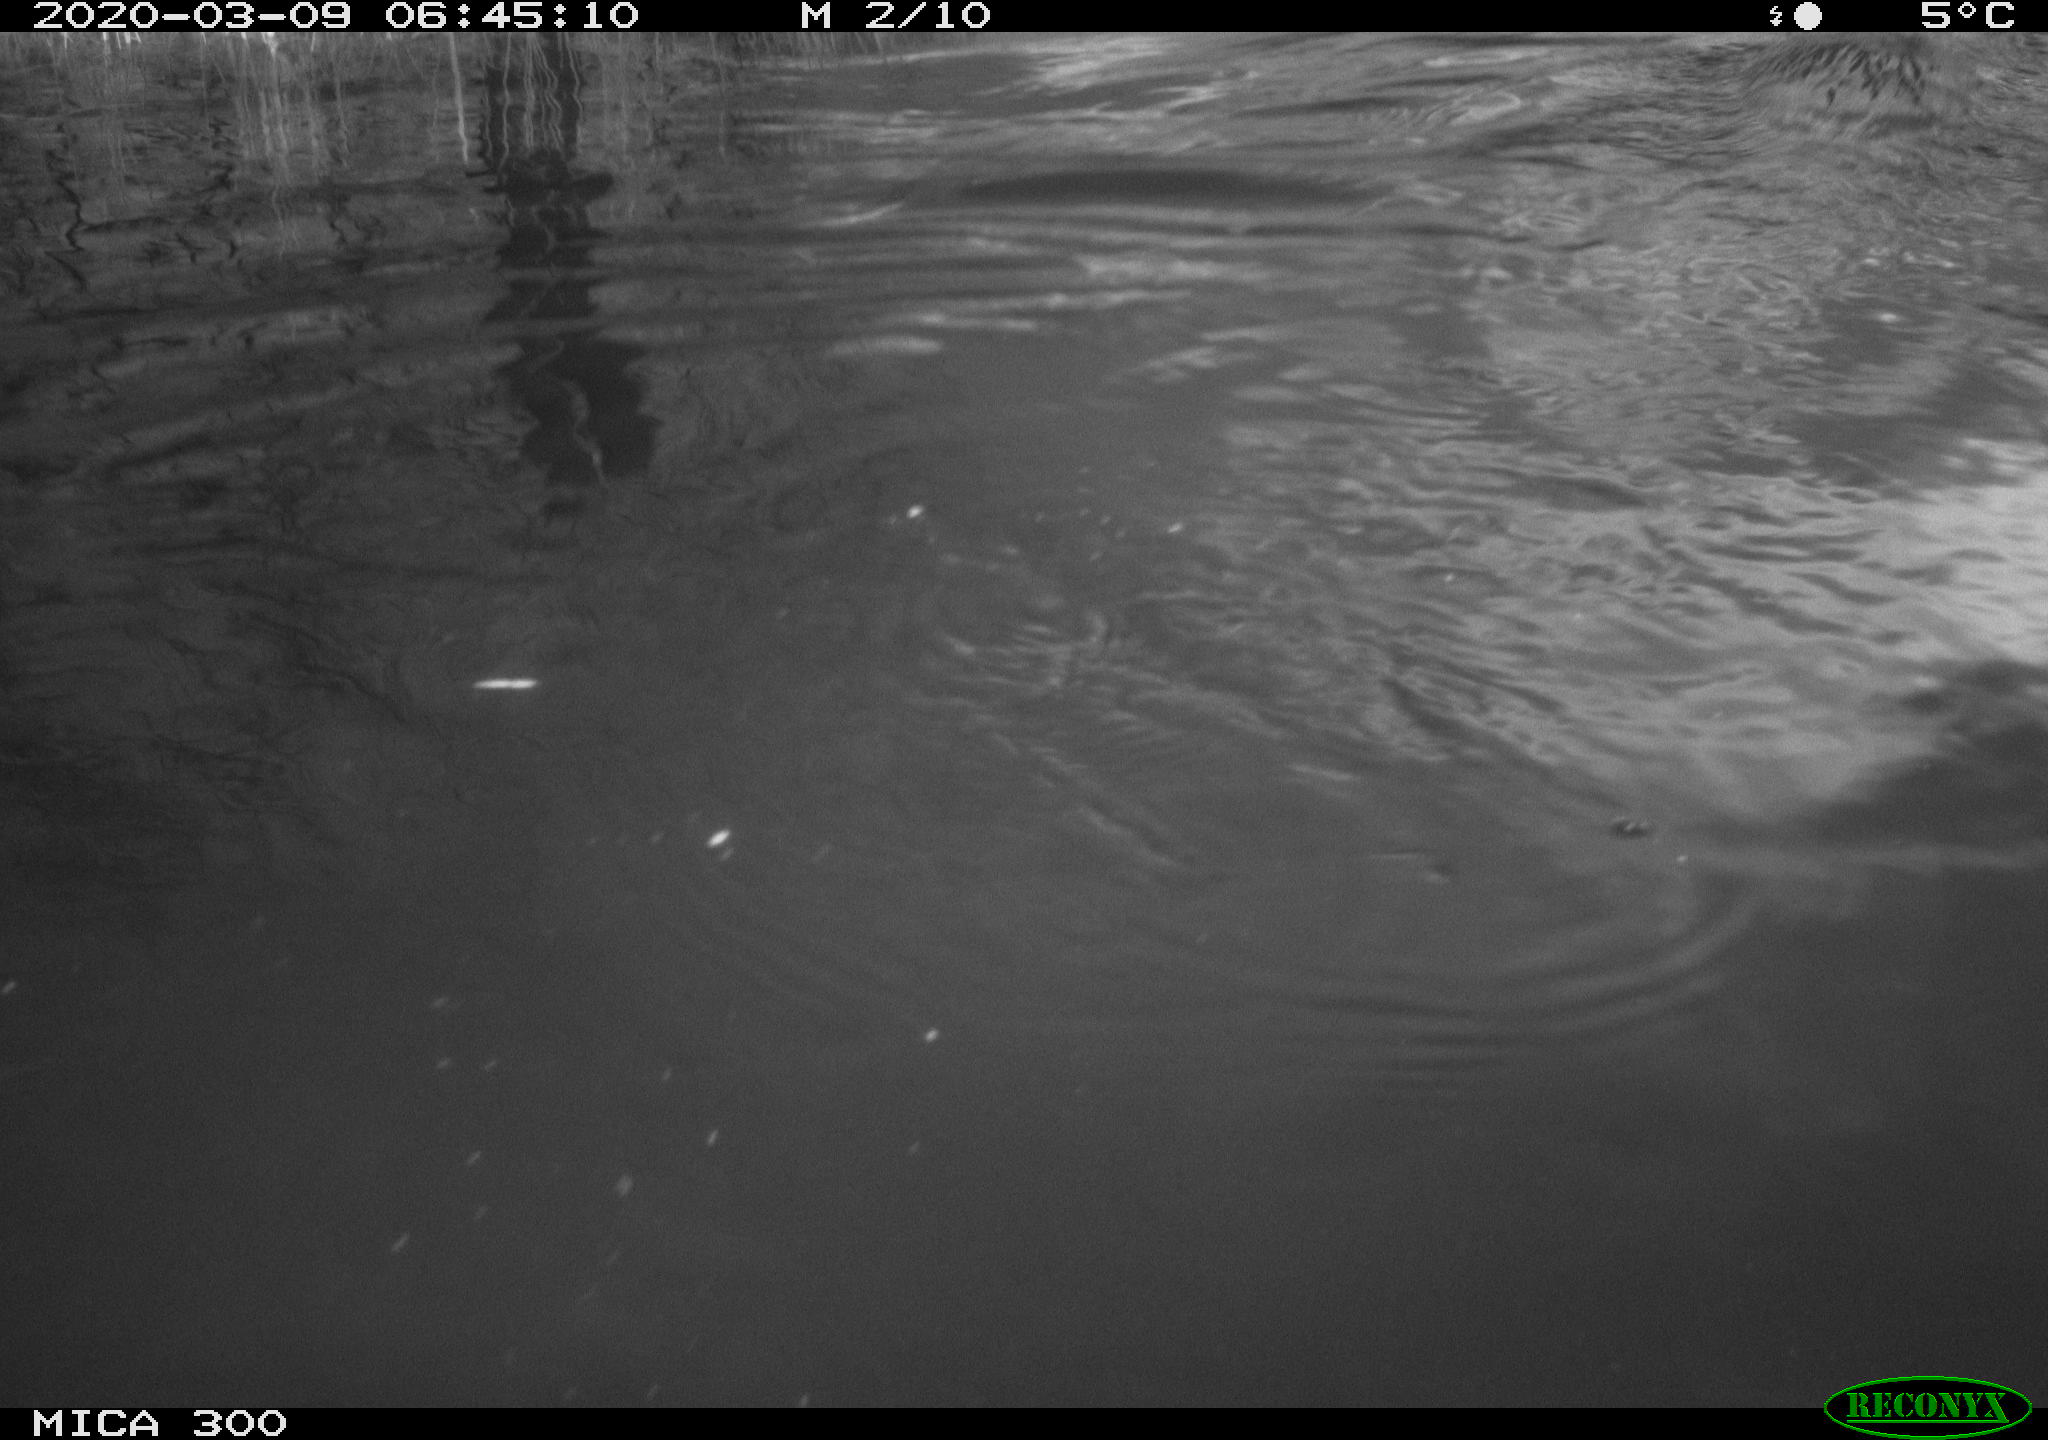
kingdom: Animalia
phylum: Chordata
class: Mammalia
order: Rodentia
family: Castoridae
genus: Castor
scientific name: Castor fiber
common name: Eurasian beaver
